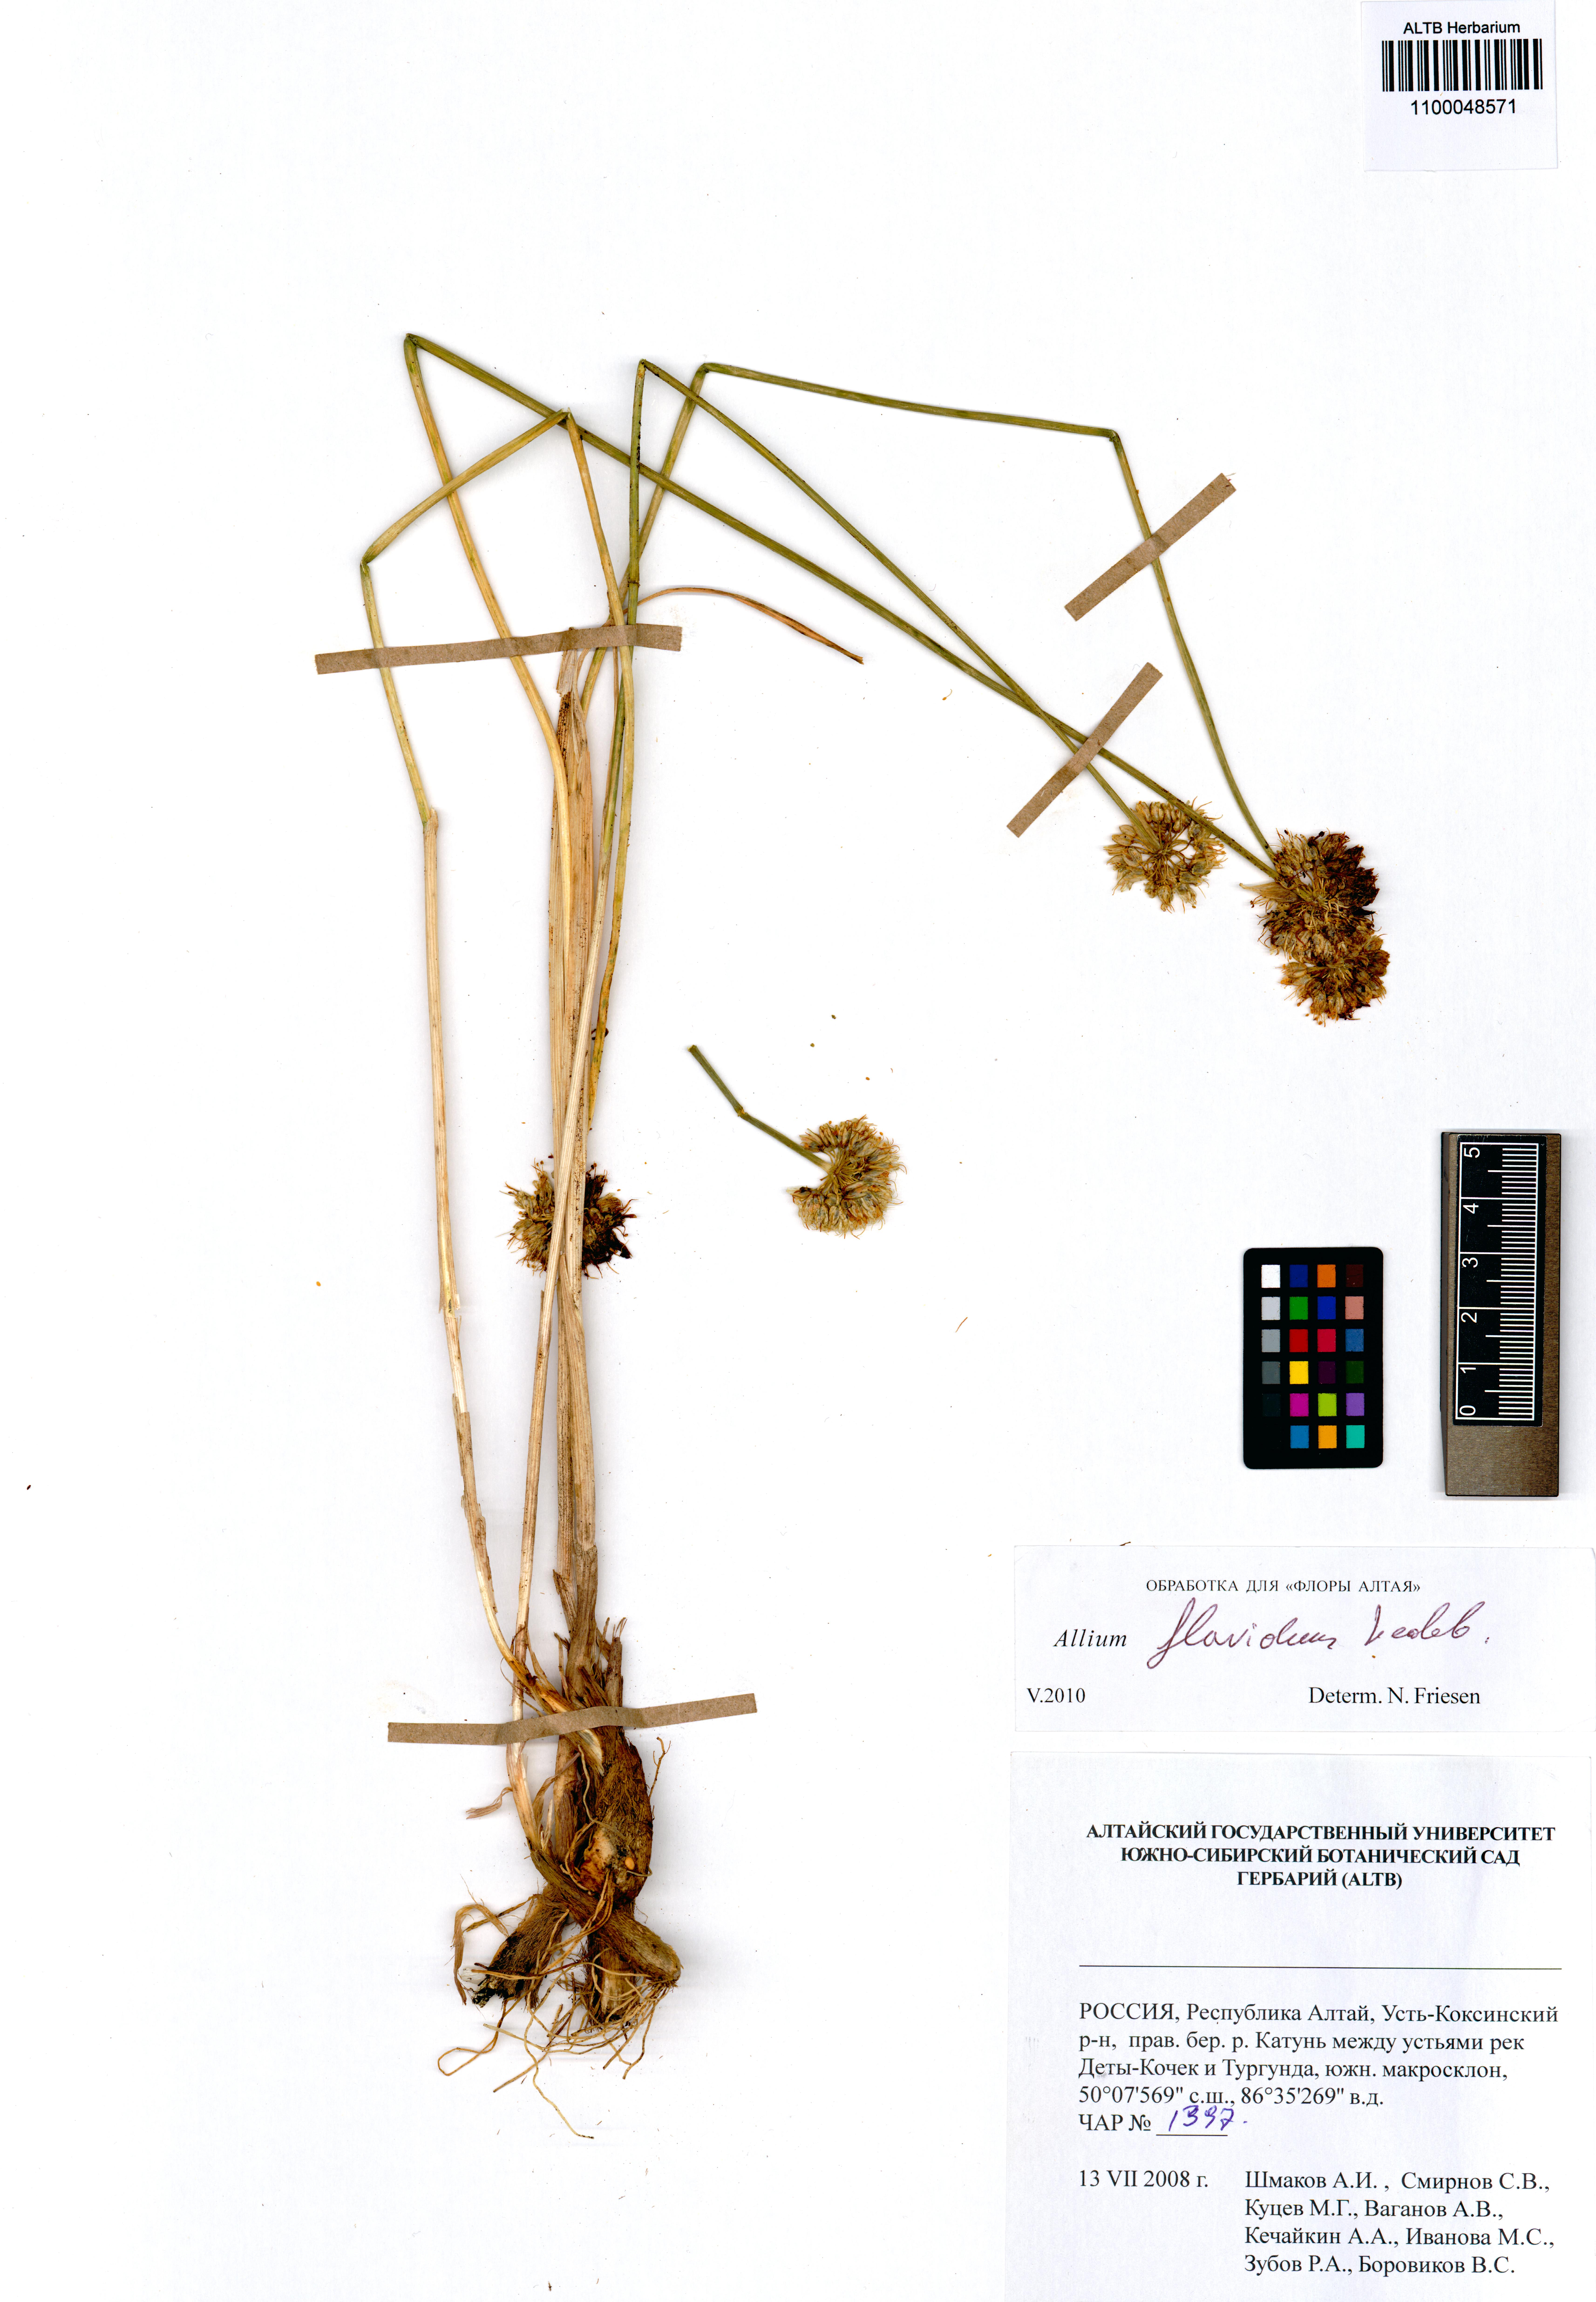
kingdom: Plantae
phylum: Tracheophyta
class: Liliopsida
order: Asparagales
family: Amaryllidaceae
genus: Allium
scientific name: Allium flavidum
